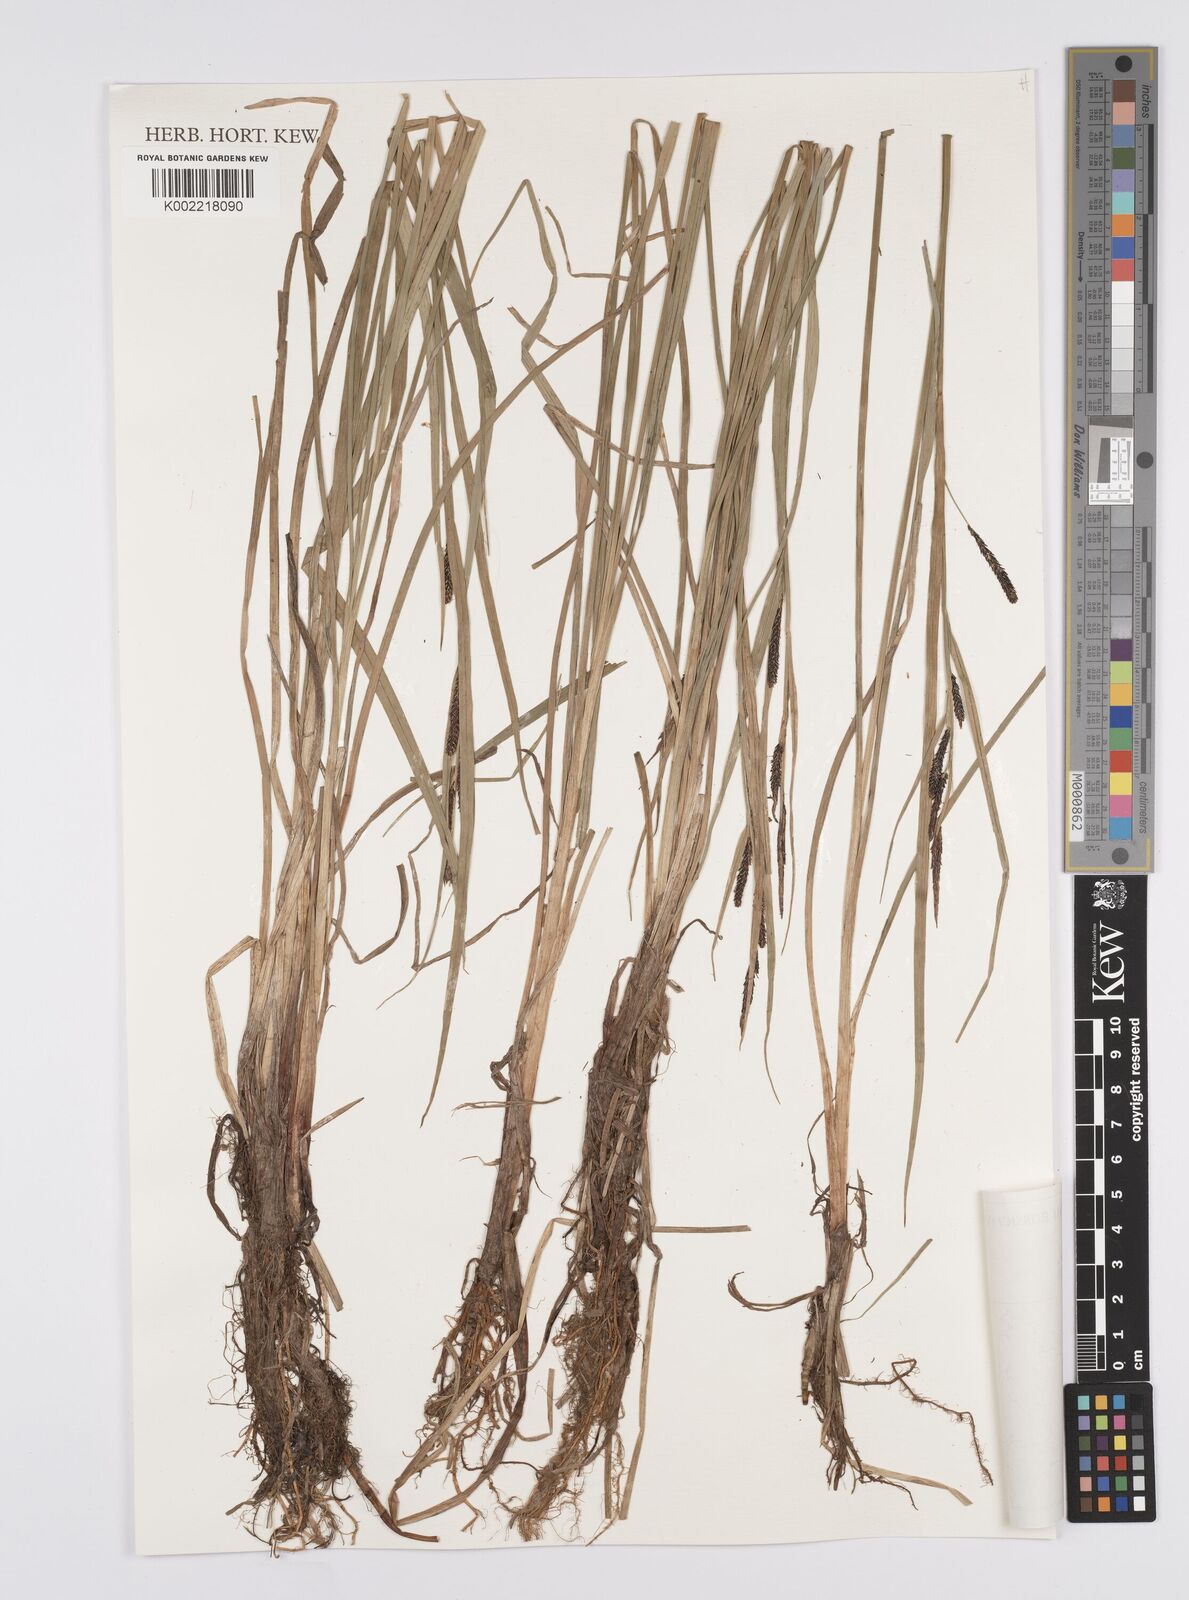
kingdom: Plantae
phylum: Tracheophyta
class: Liliopsida
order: Poales
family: Cyperaceae
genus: Carex
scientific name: Carex aquatilis
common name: Water sedge
